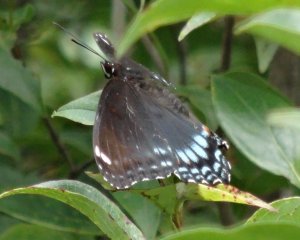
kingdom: Animalia
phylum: Arthropoda
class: Insecta
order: Lepidoptera
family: Nymphalidae
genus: Limenitis
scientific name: Limenitis astyanax
